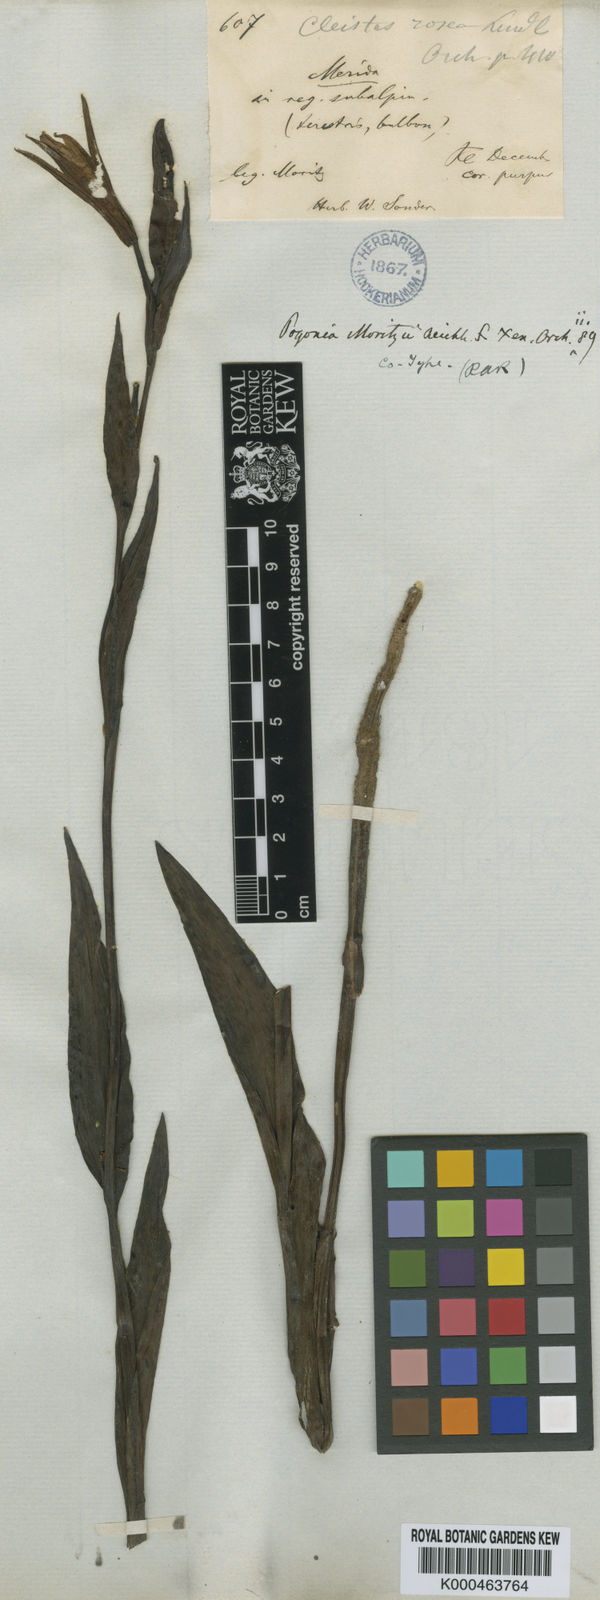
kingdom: Plantae
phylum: Tracheophyta
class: Liliopsida
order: Asparagales
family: Orchidaceae
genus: Cleistes
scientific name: Cleistes moritzii
